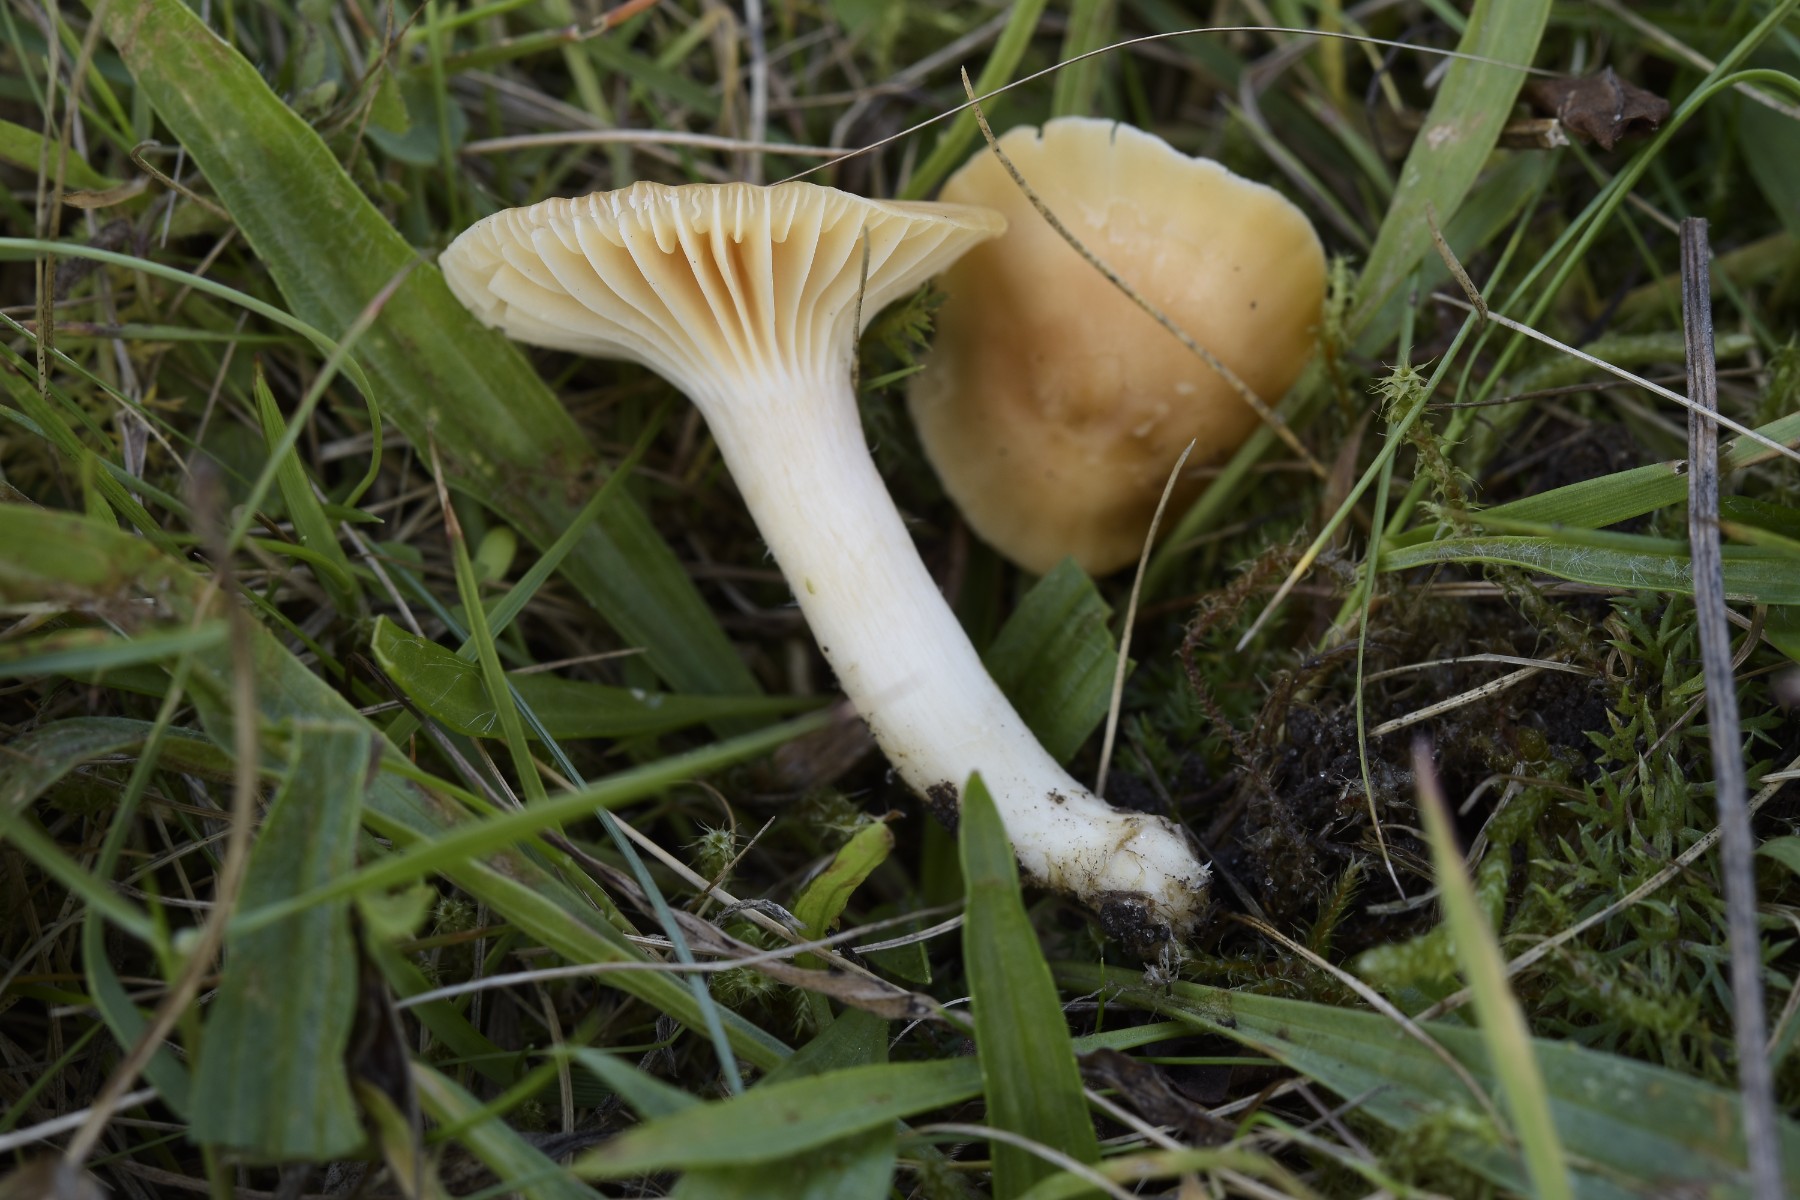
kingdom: Fungi
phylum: Basidiomycota
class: Agaricomycetes
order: Agaricales
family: Hygrophoraceae
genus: Cuphophyllus
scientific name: Cuphophyllus pratensis
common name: eng-vokshat
